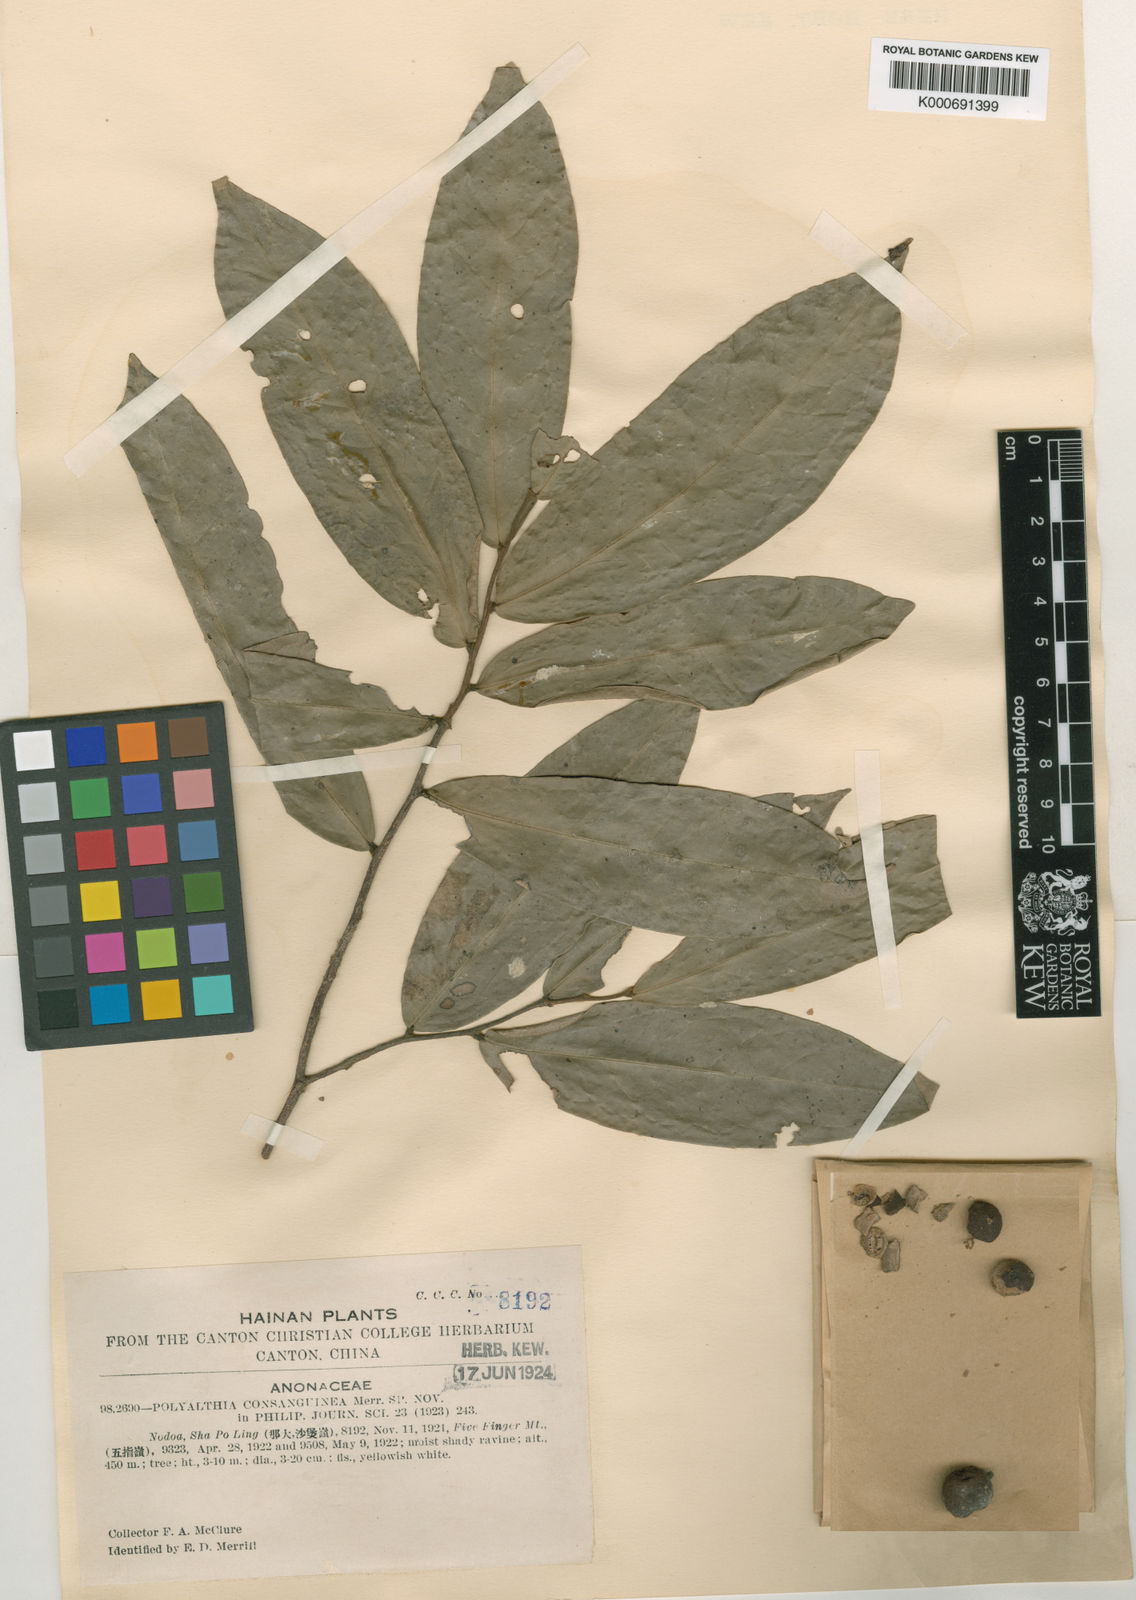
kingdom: Plantae
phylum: Tracheophyta
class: Magnoliopsida
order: Magnoliales
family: Annonaceae
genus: Polyalthia
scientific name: Polyalthia obliqua
